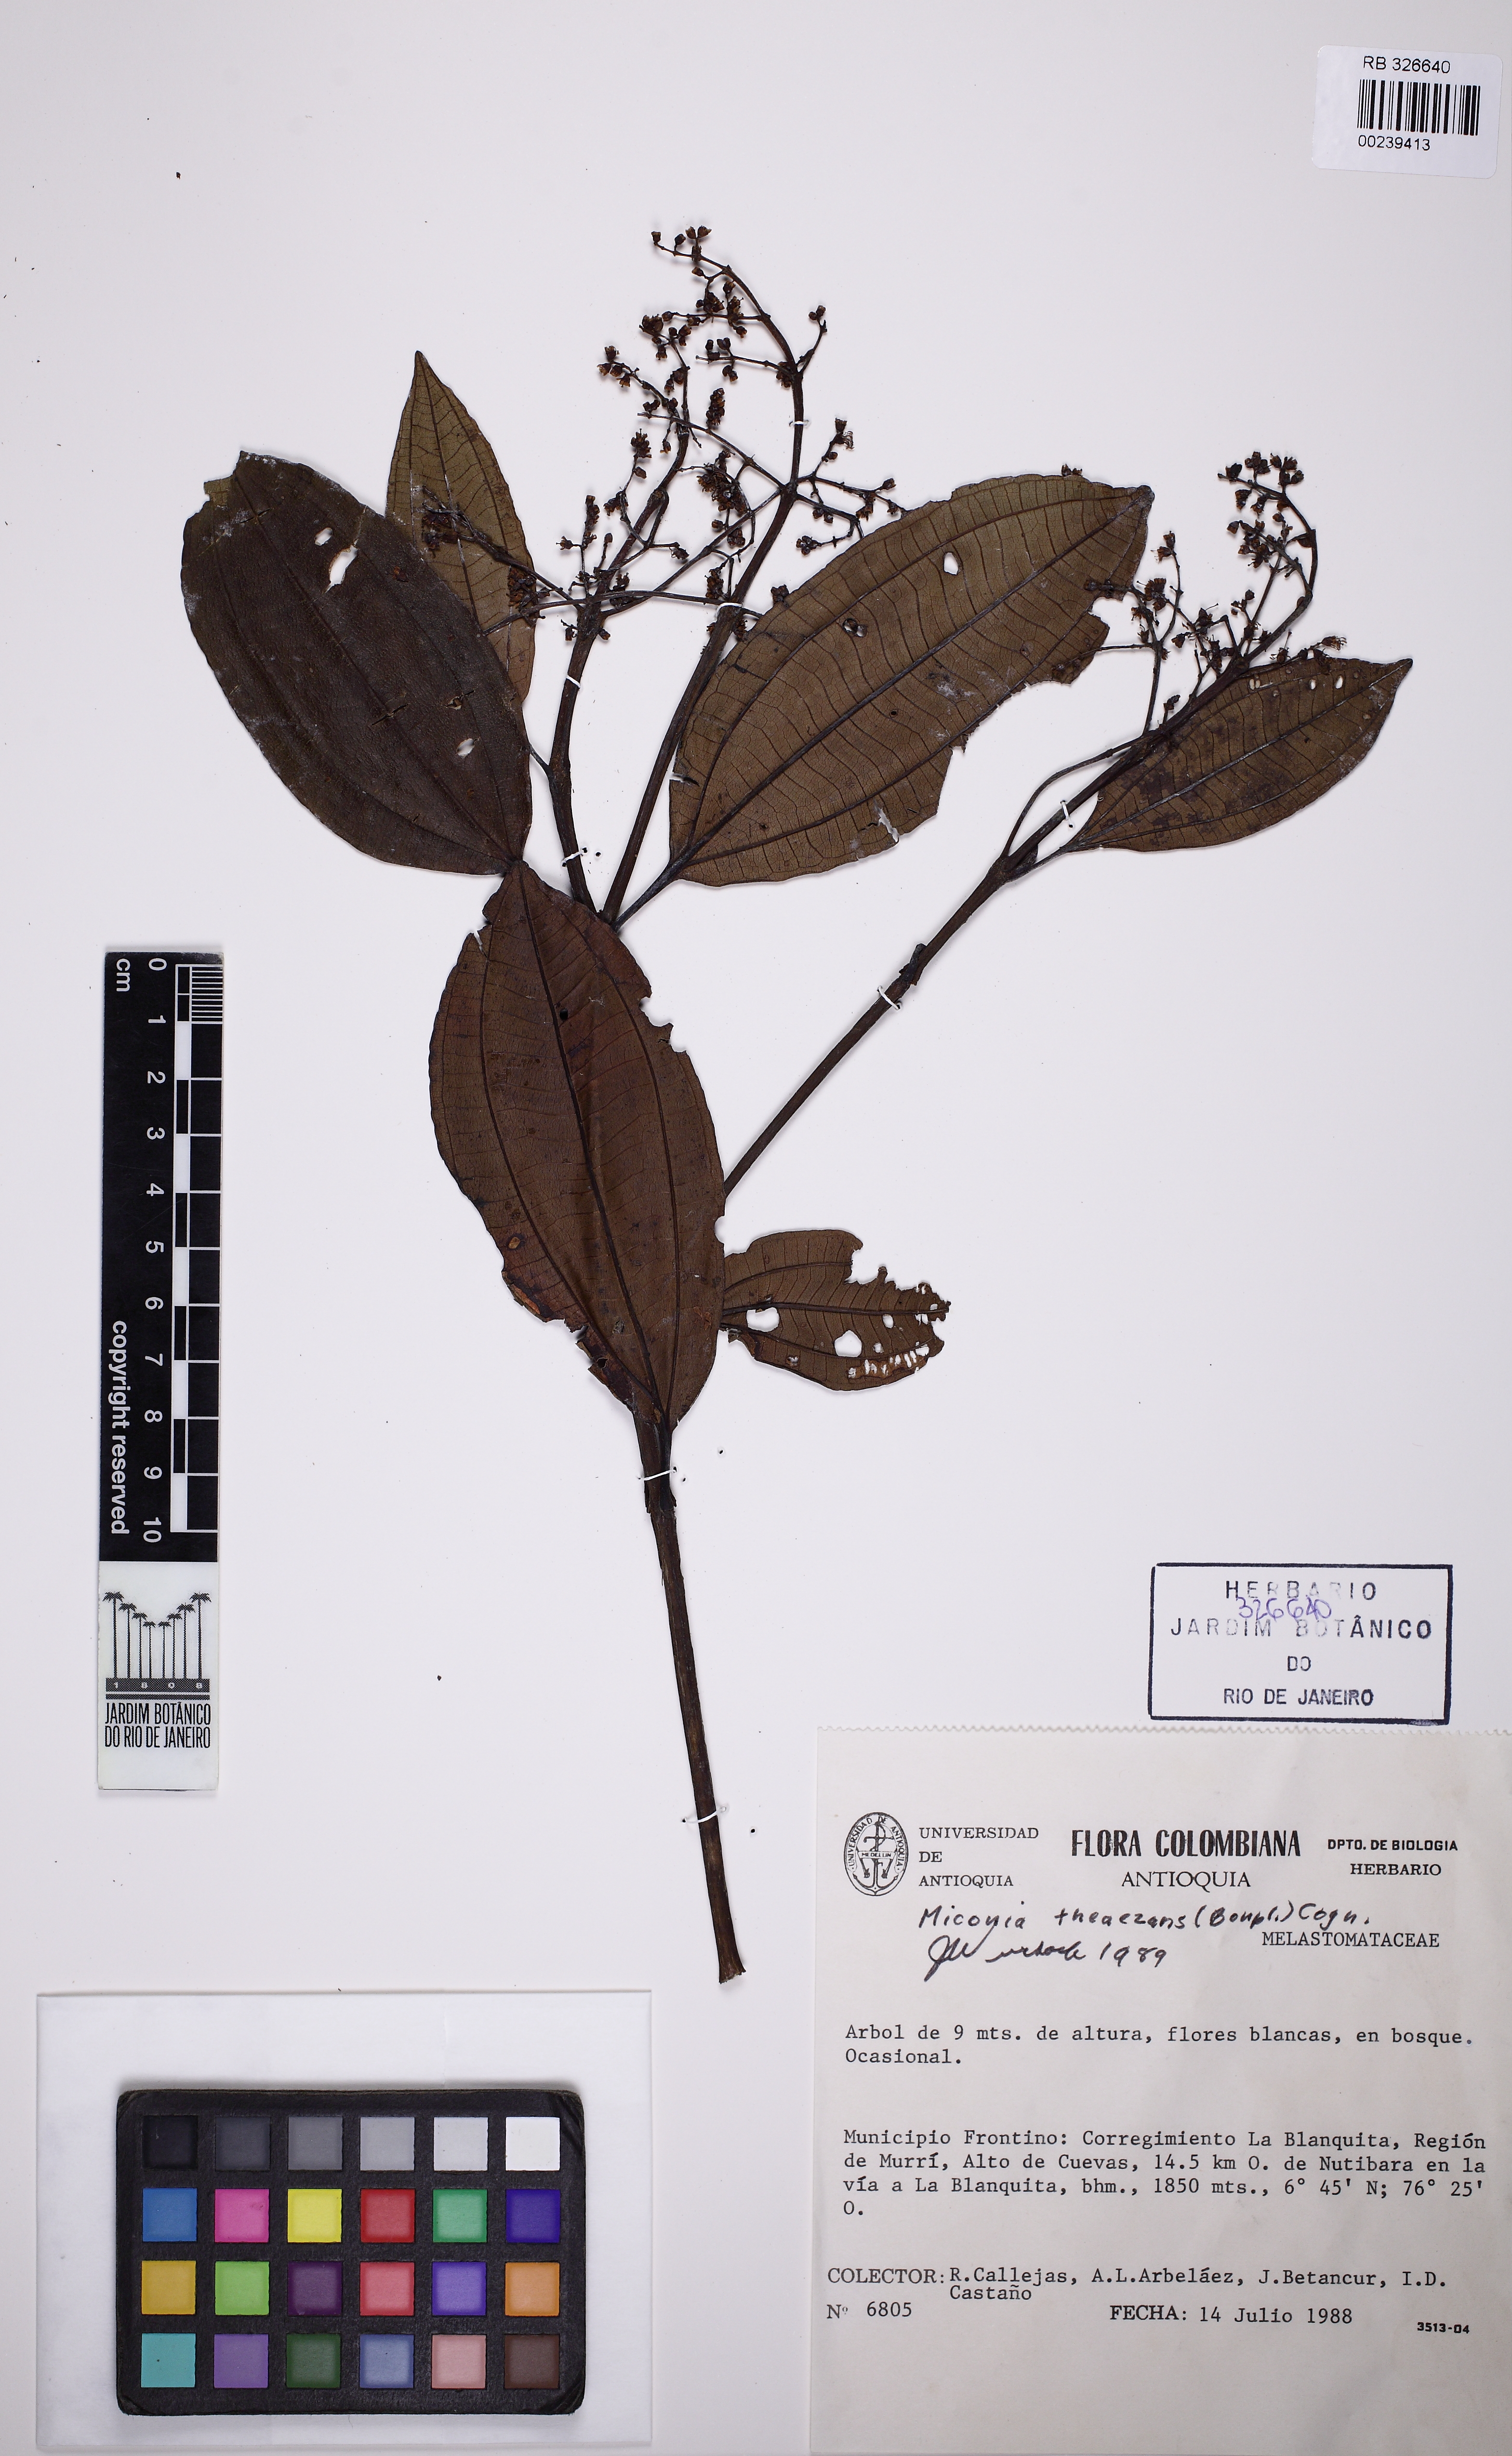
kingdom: Plantae
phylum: Tracheophyta
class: Magnoliopsida
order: Myrtales
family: Melastomataceae
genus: Miconia
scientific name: Miconia theizans
